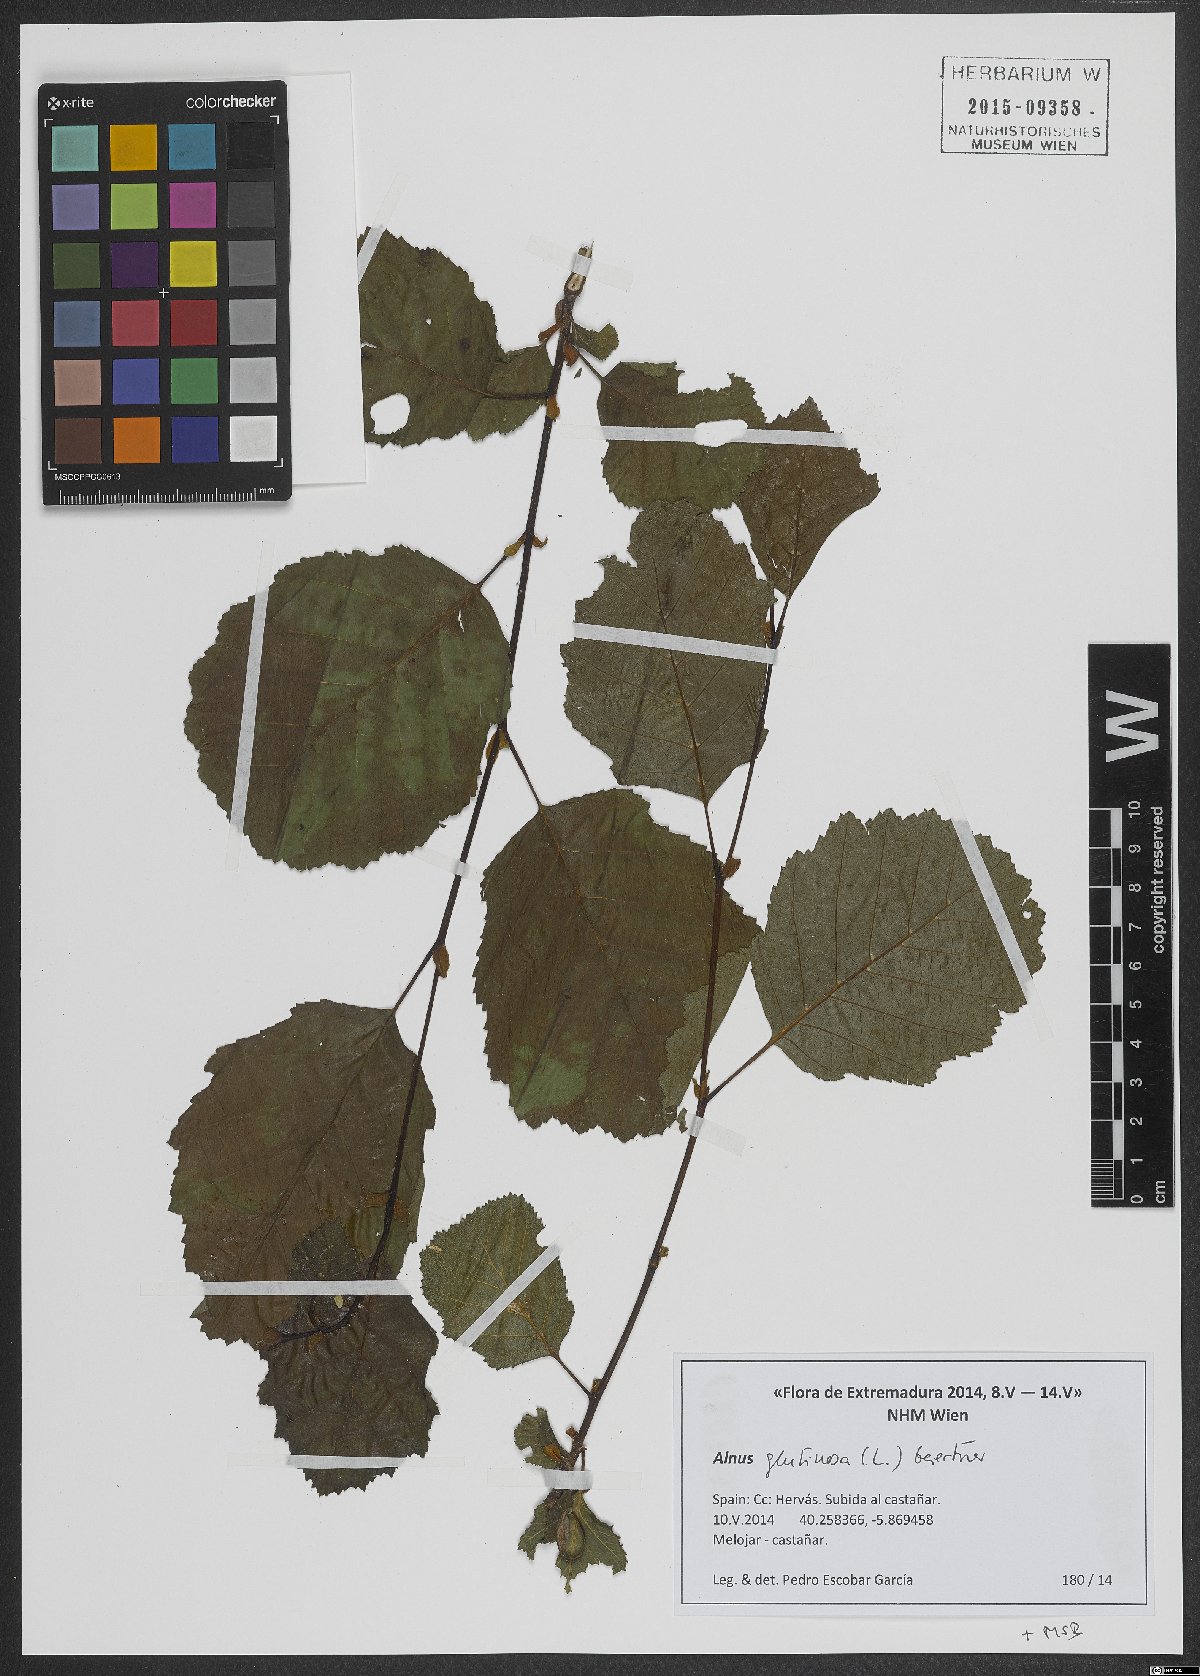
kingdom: Plantae
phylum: Tracheophyta
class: Magnoliopsida
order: Fagales
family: Betulaceae
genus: Alnus
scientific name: Alnus glutinosa
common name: Black alder
